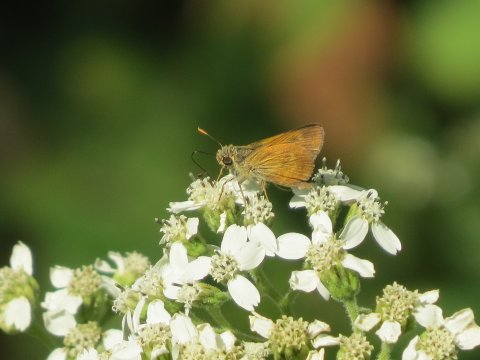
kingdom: Animalia
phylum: Arthropoda
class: Insecta
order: Lepidoptera
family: Hesperiidae
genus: Wallengrenia
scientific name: Wallengrenia otho
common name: Southern Broken-Dash
